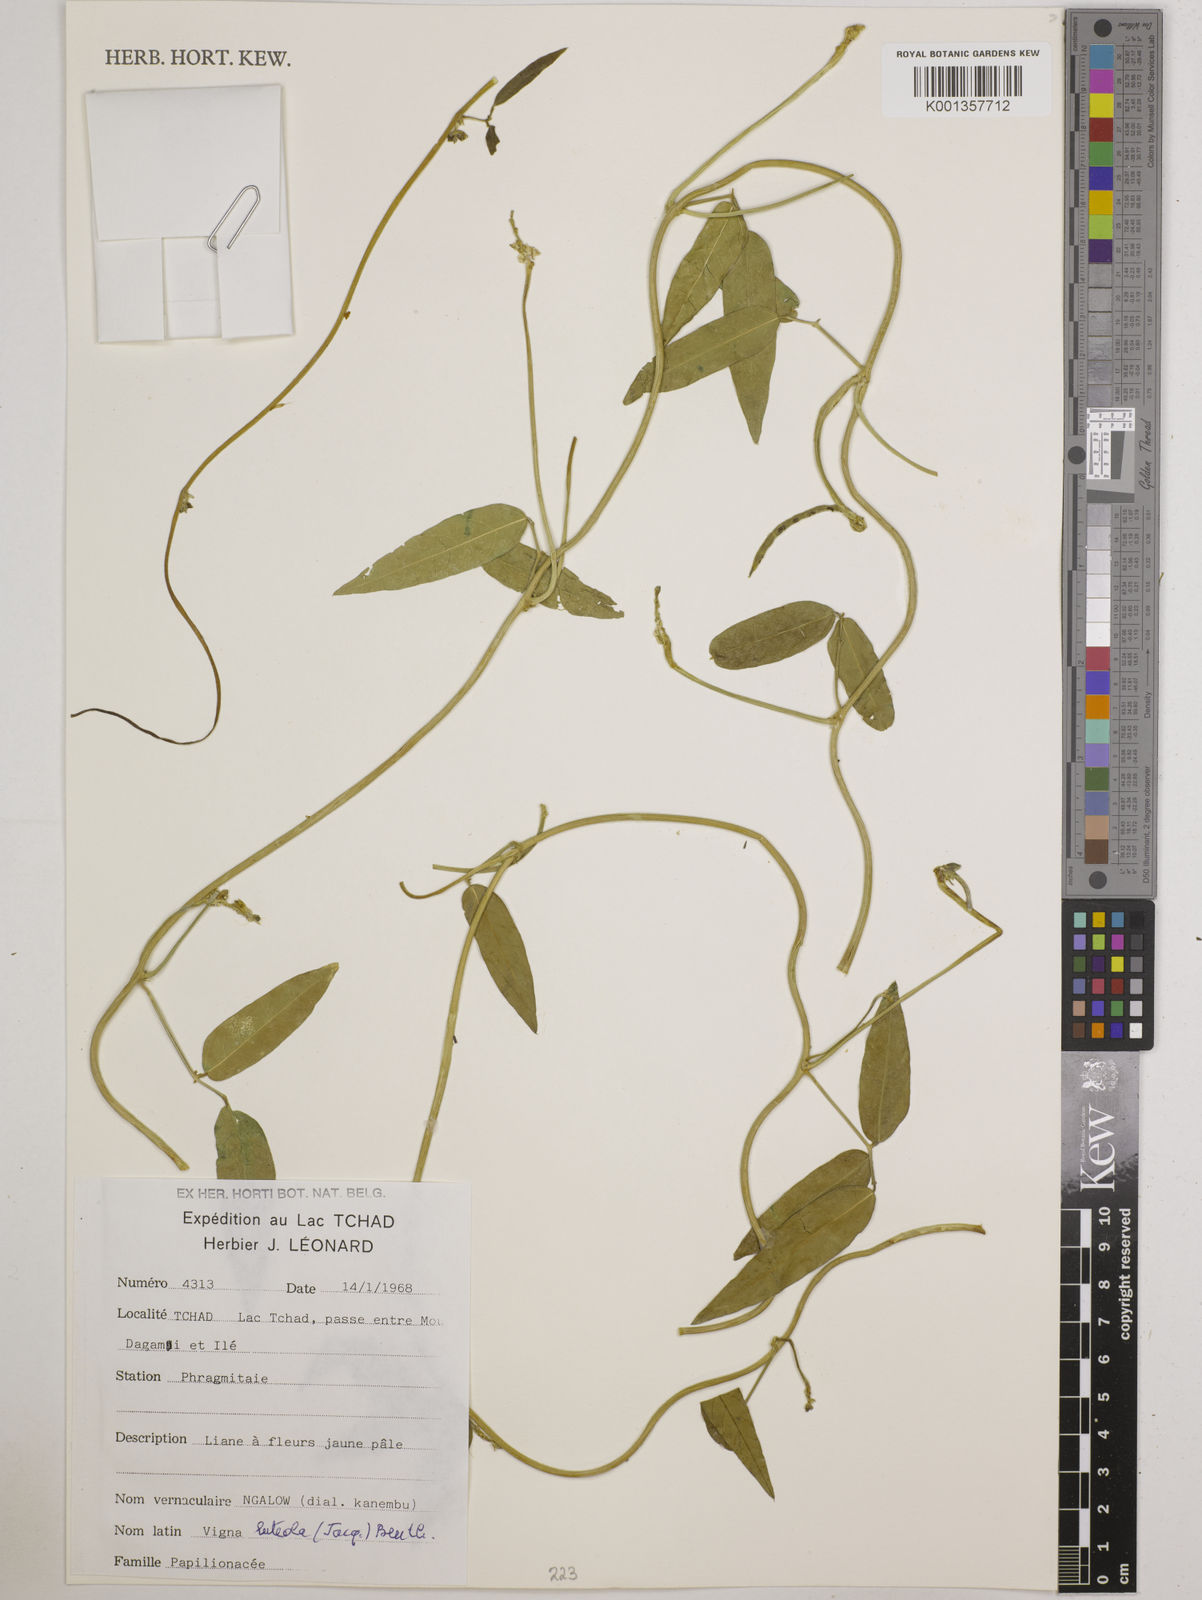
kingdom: Plantae
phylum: Tracheophyta
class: Magnoliopsida
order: Fabales
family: Fabaceae
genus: Vigna
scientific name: Vigna luteola
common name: Hairypod cowpea
